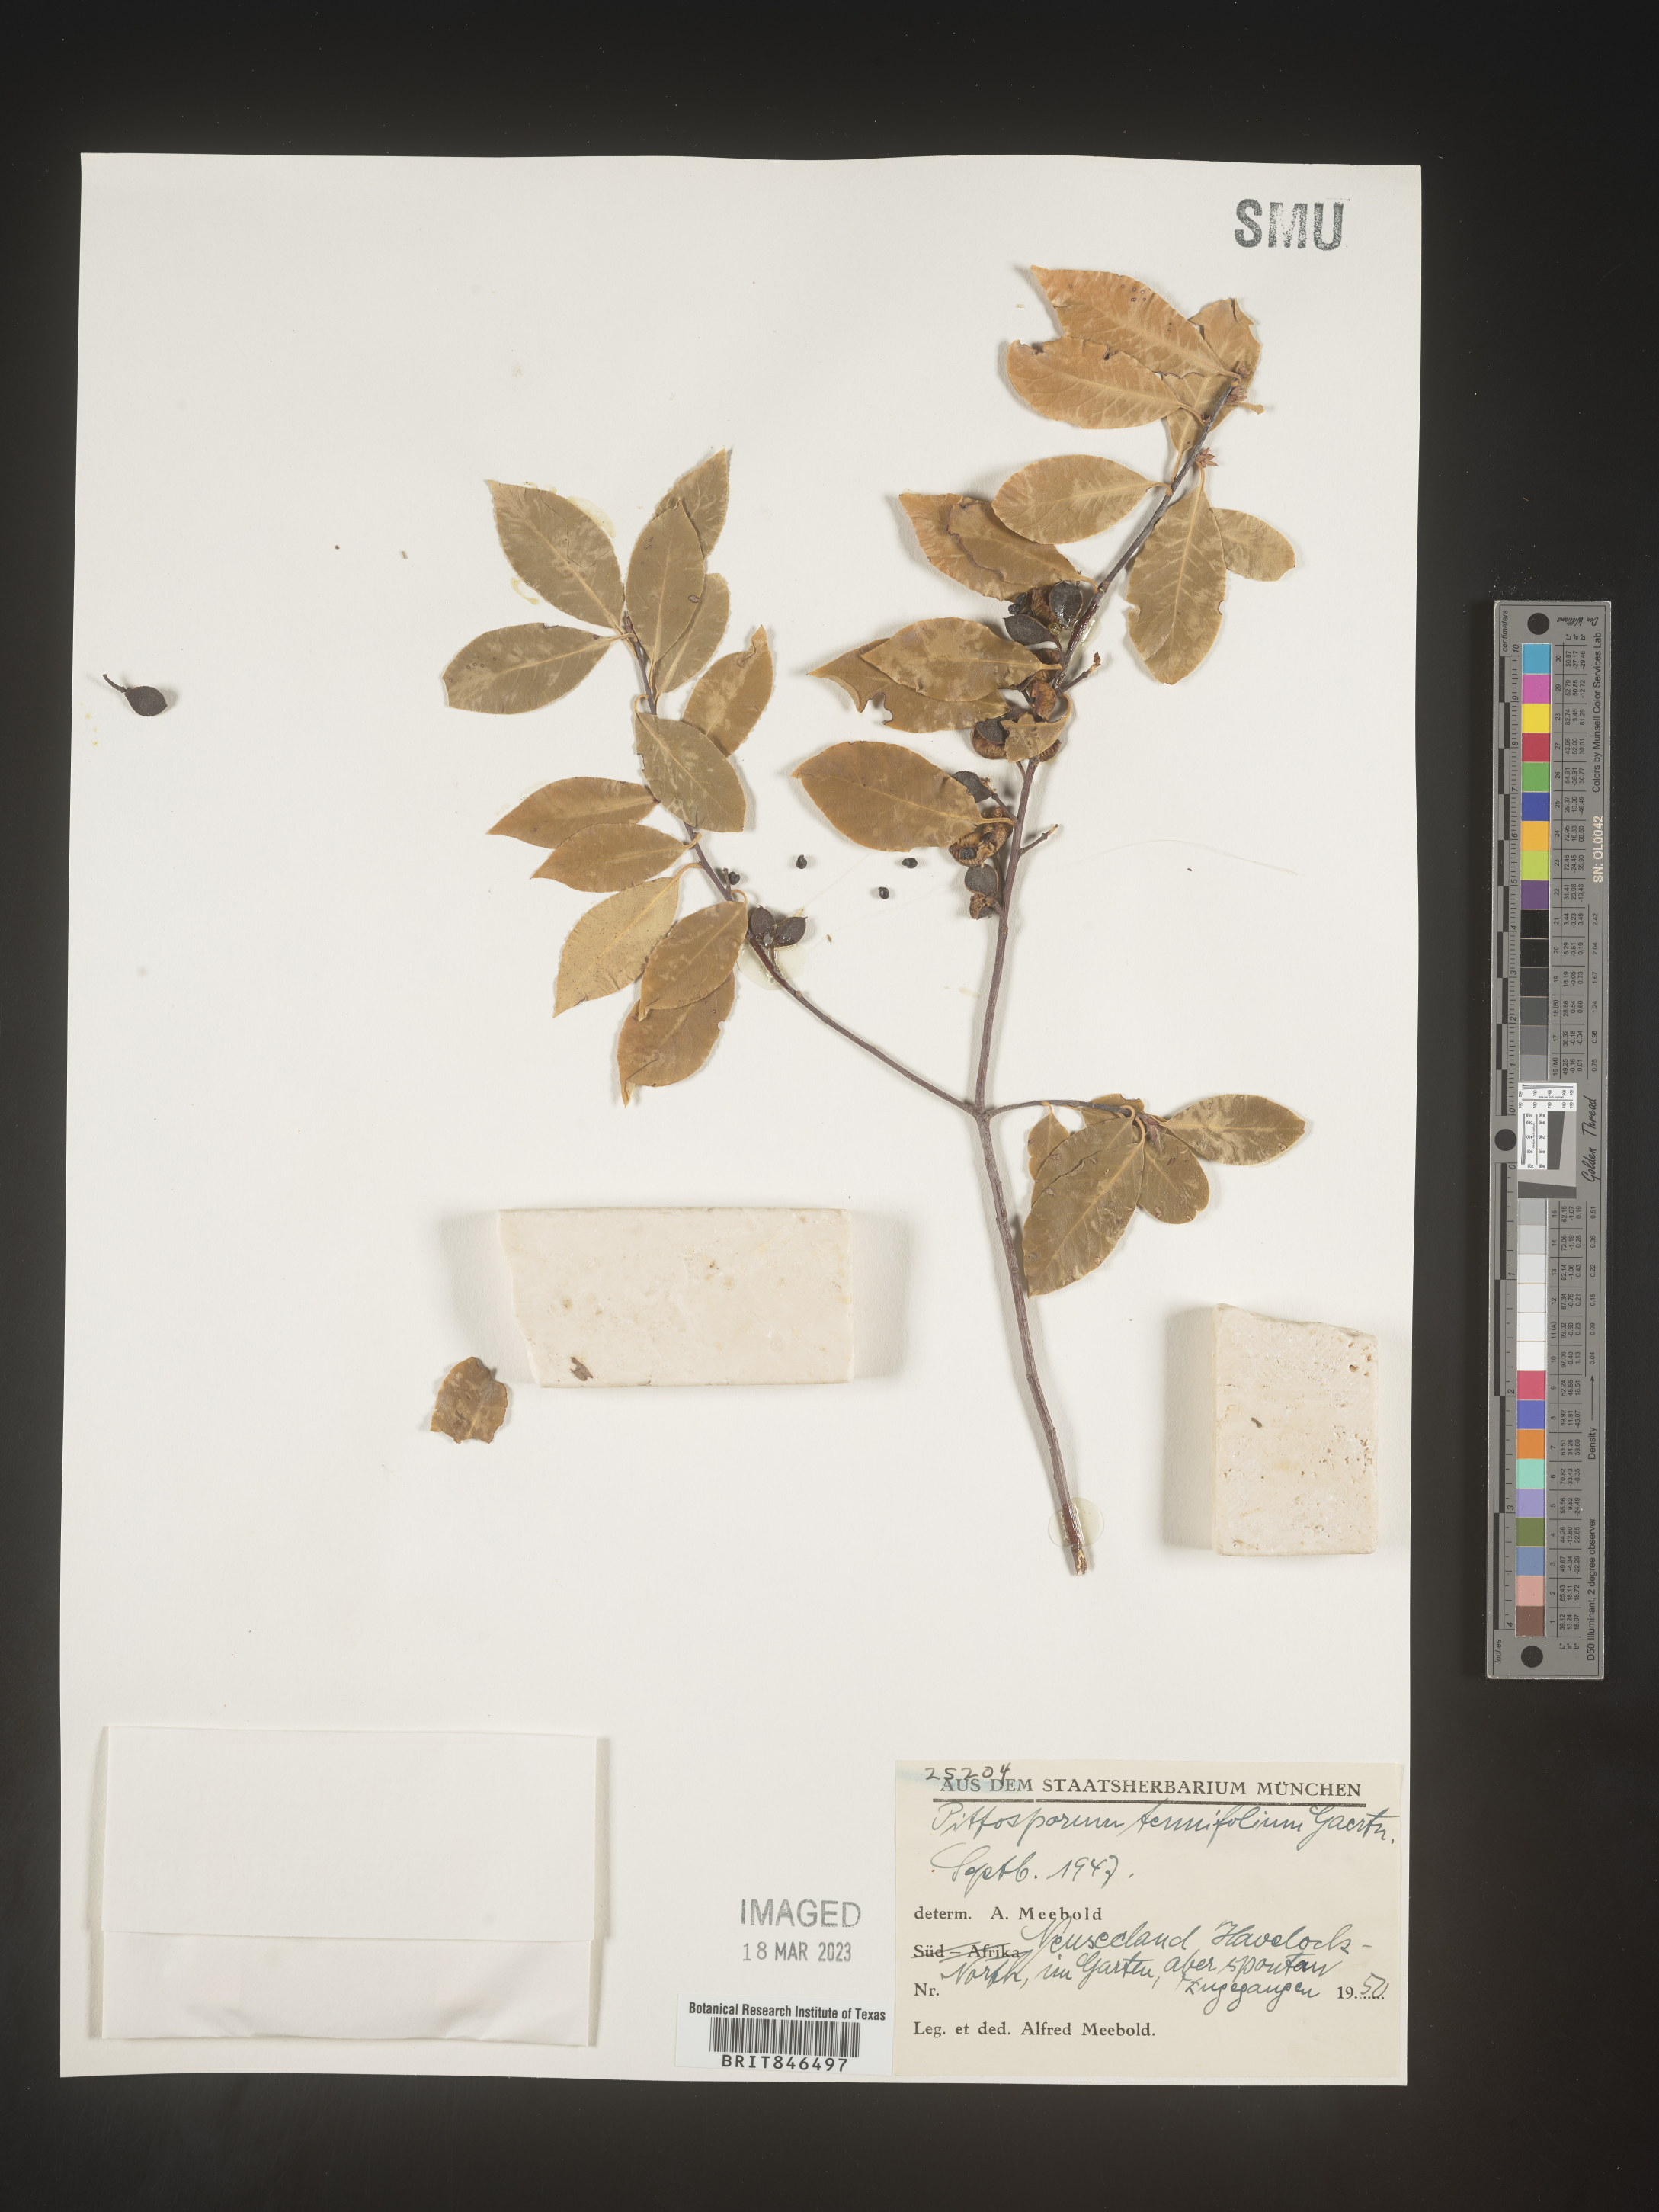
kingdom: Plantae
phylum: Tracheophyta
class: Magnoliopsida
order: Apiales
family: Pittosporaceae
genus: Pittosporum
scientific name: Pittosporum
